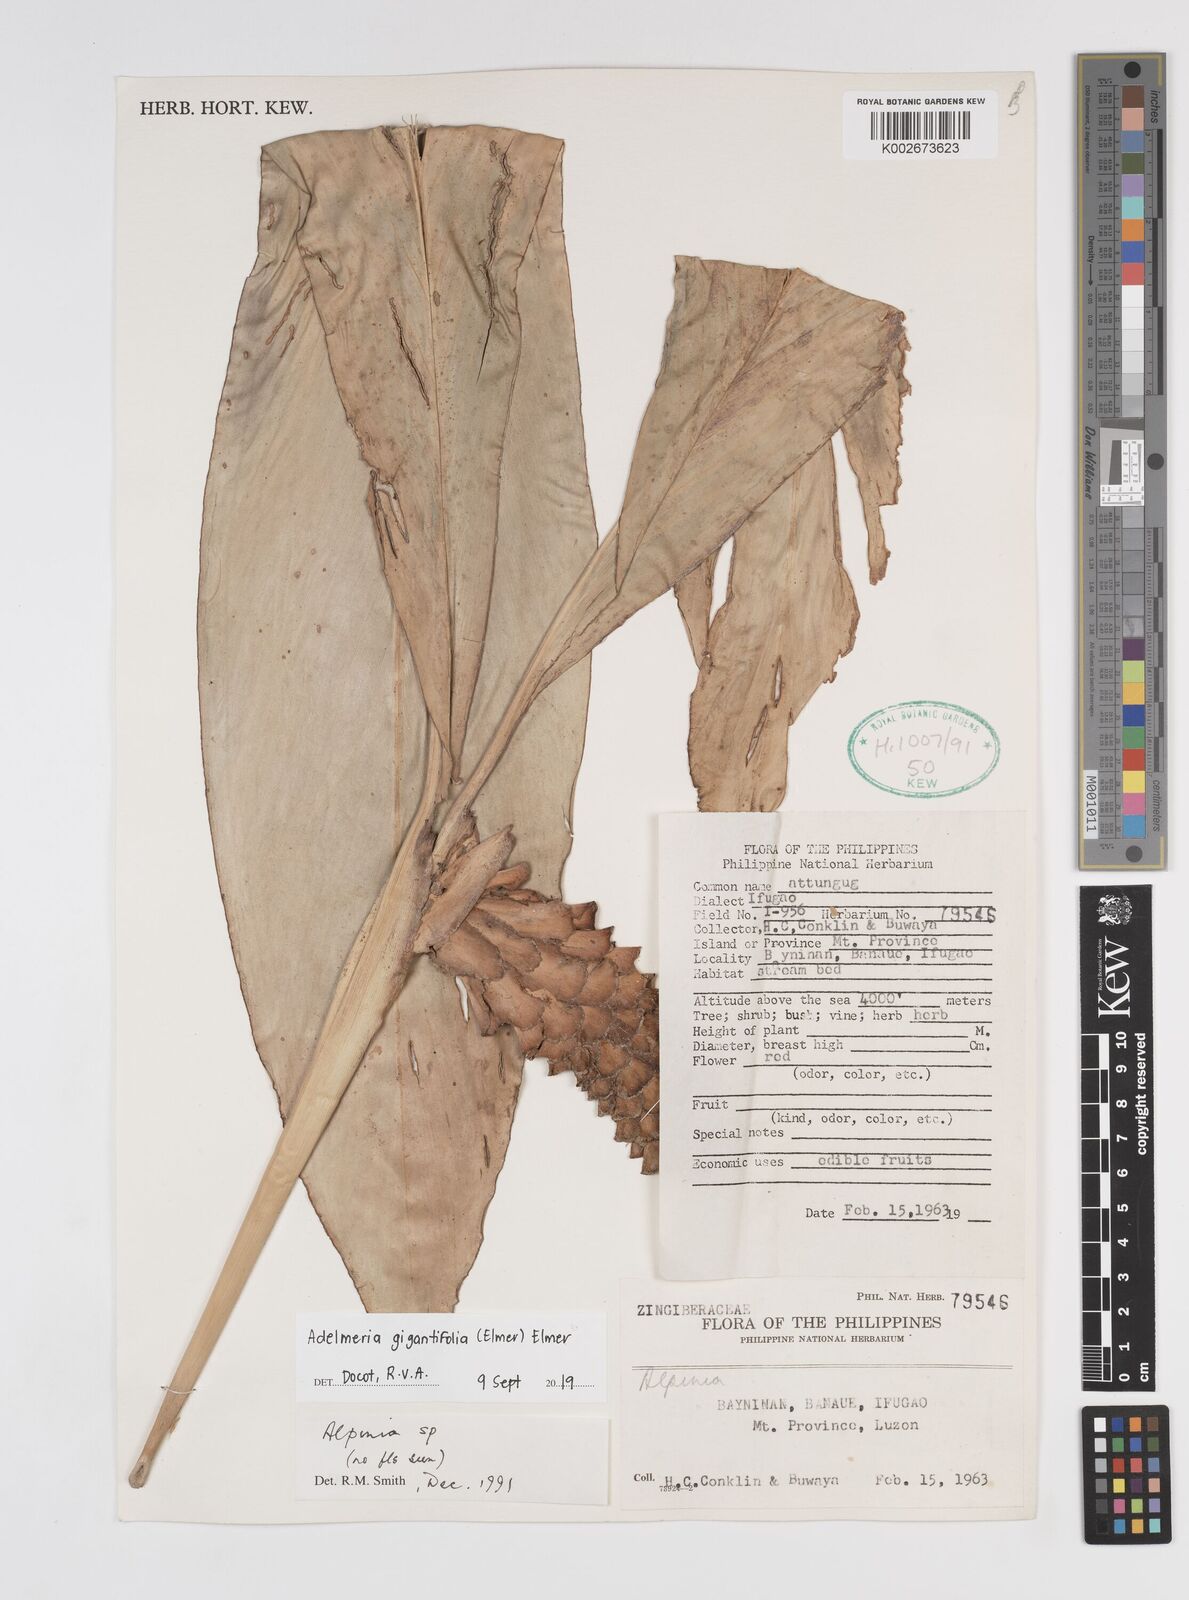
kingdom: Plantae
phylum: Tracheophyta
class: Liliopsida
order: Zingiberales
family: Zingiberaceae
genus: Adelmeria
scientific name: Adelmeria gigantifolia
